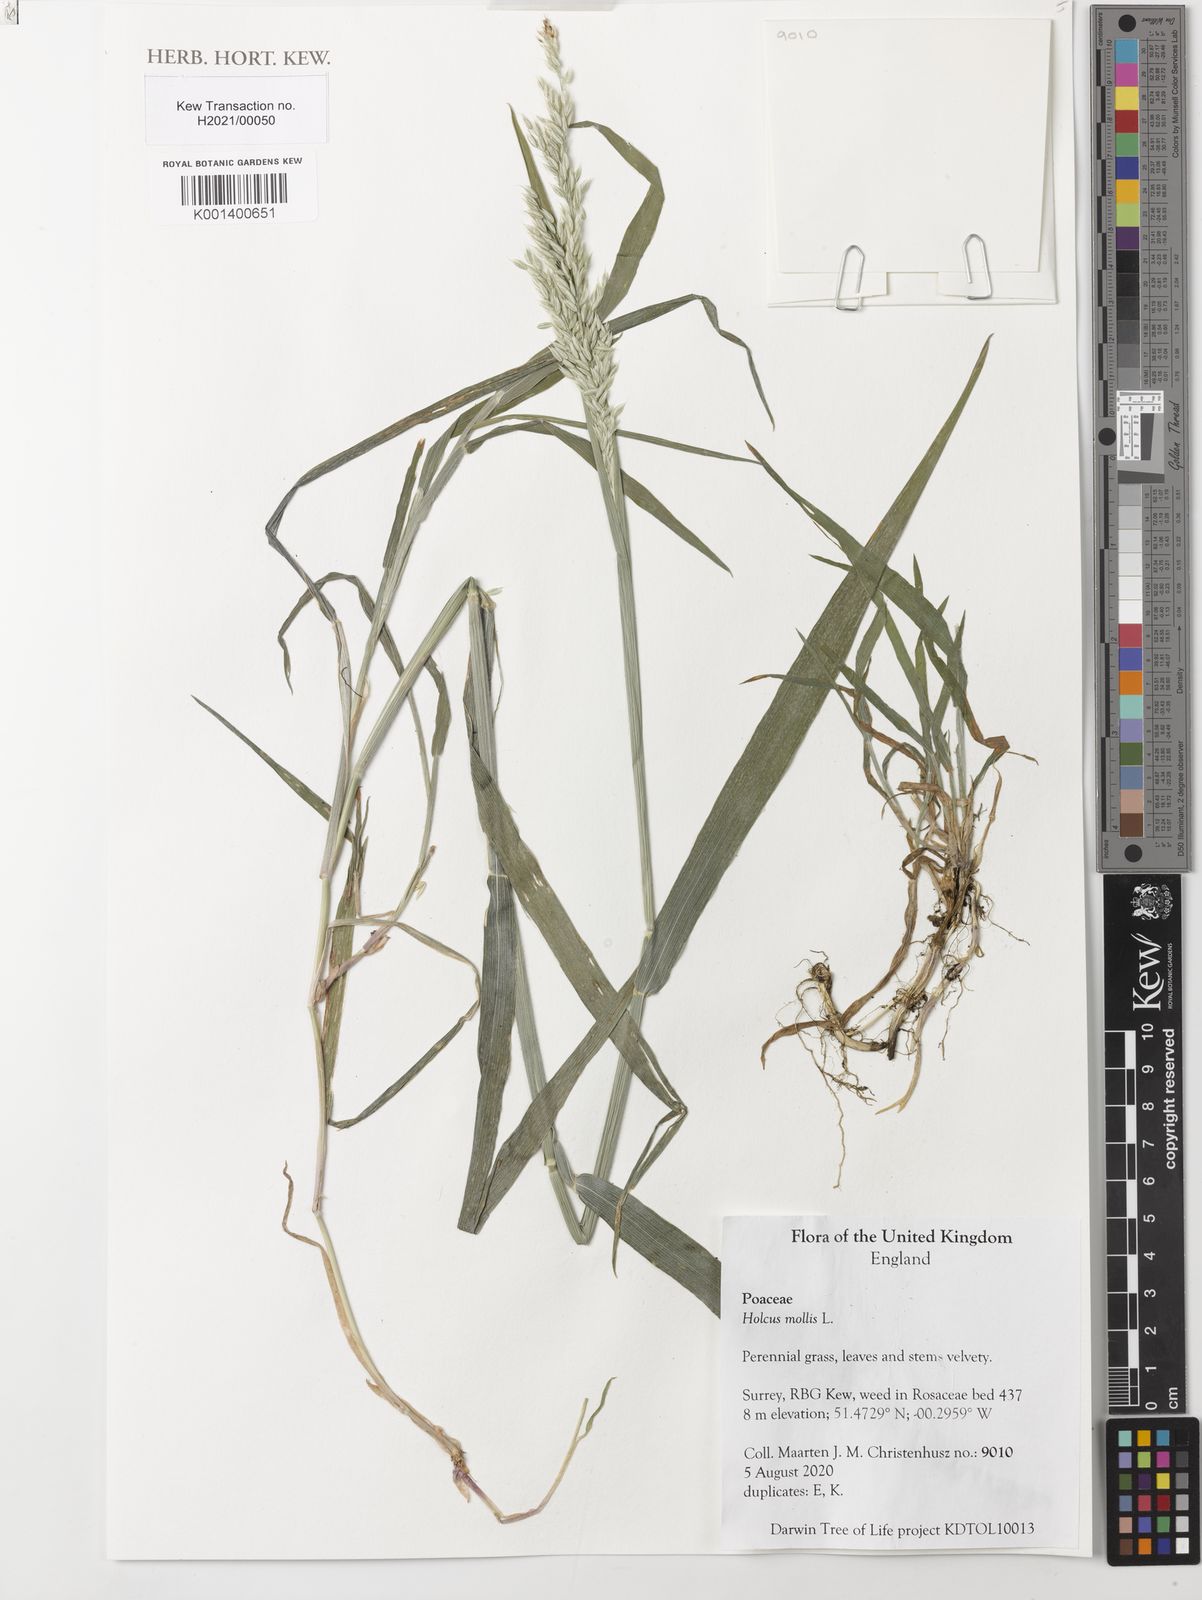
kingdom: Plantae
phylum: Tracheophyta
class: Liliopsida
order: Poales
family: Poaceae
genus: Holcus
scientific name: Holcus mollis
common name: Creeping velvetgrass
